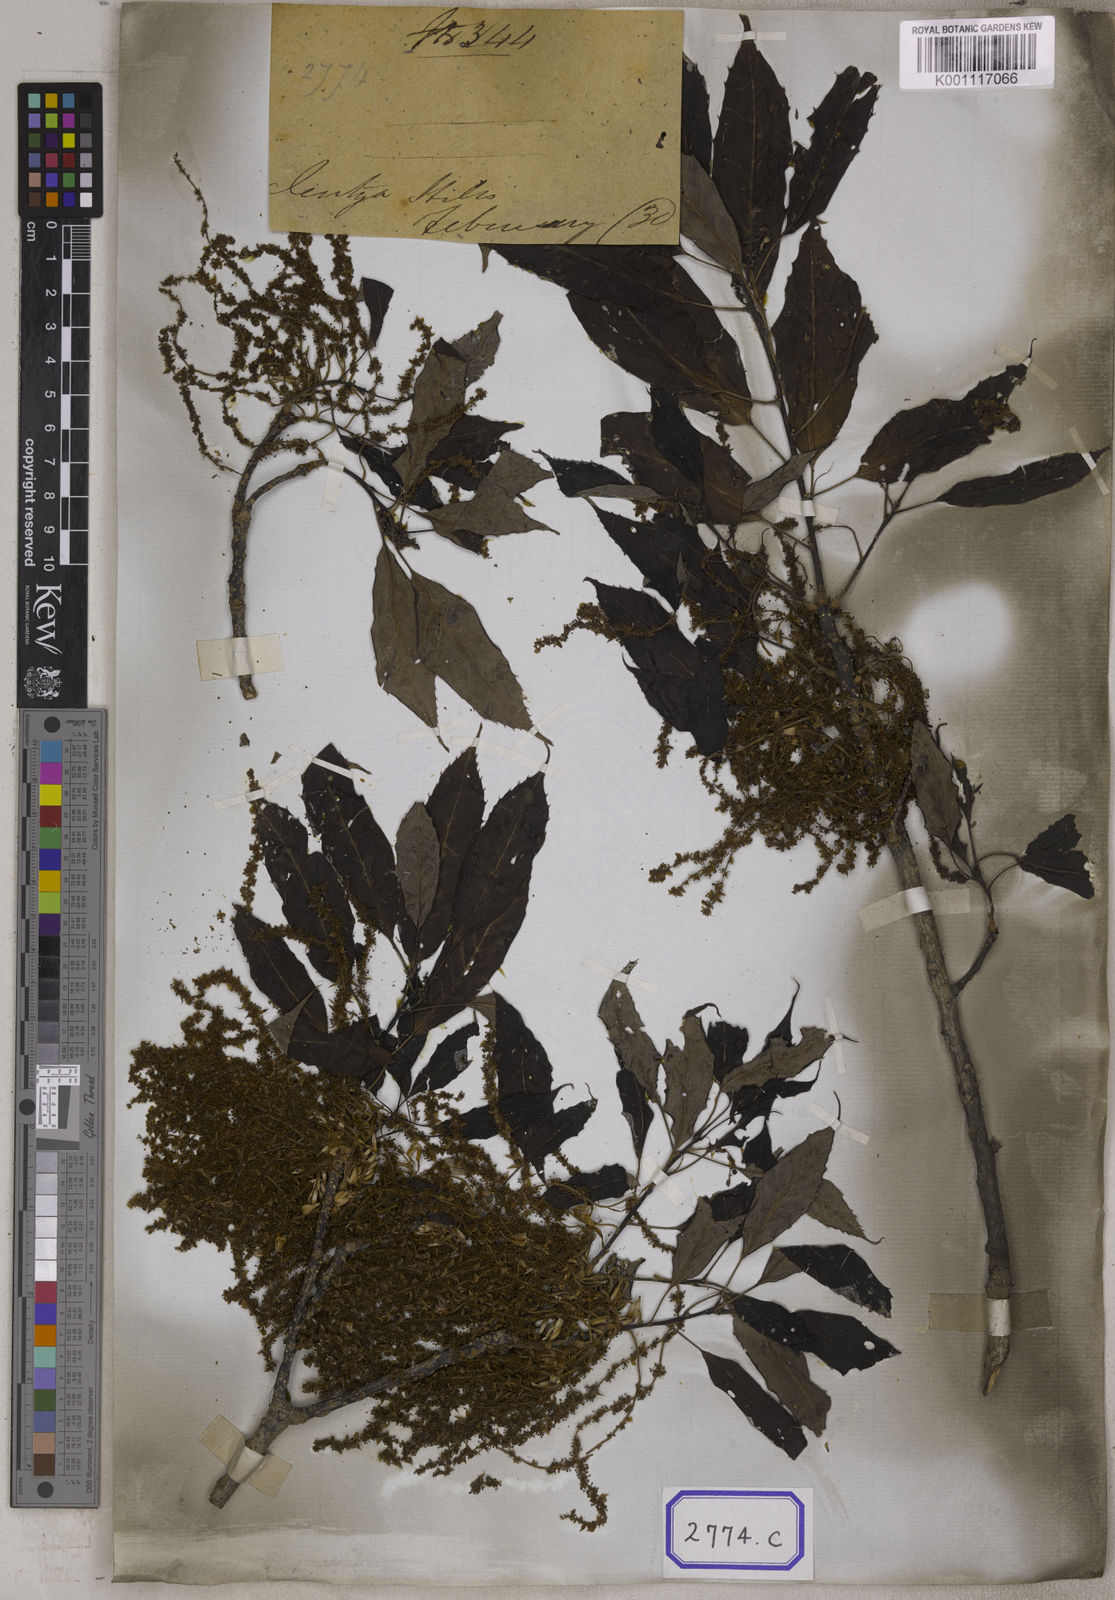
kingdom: Plantae
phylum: Tracheophyta
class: Magnoliopsida
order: Fagales
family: Fagaceae
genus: Quercus
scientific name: Quercus
